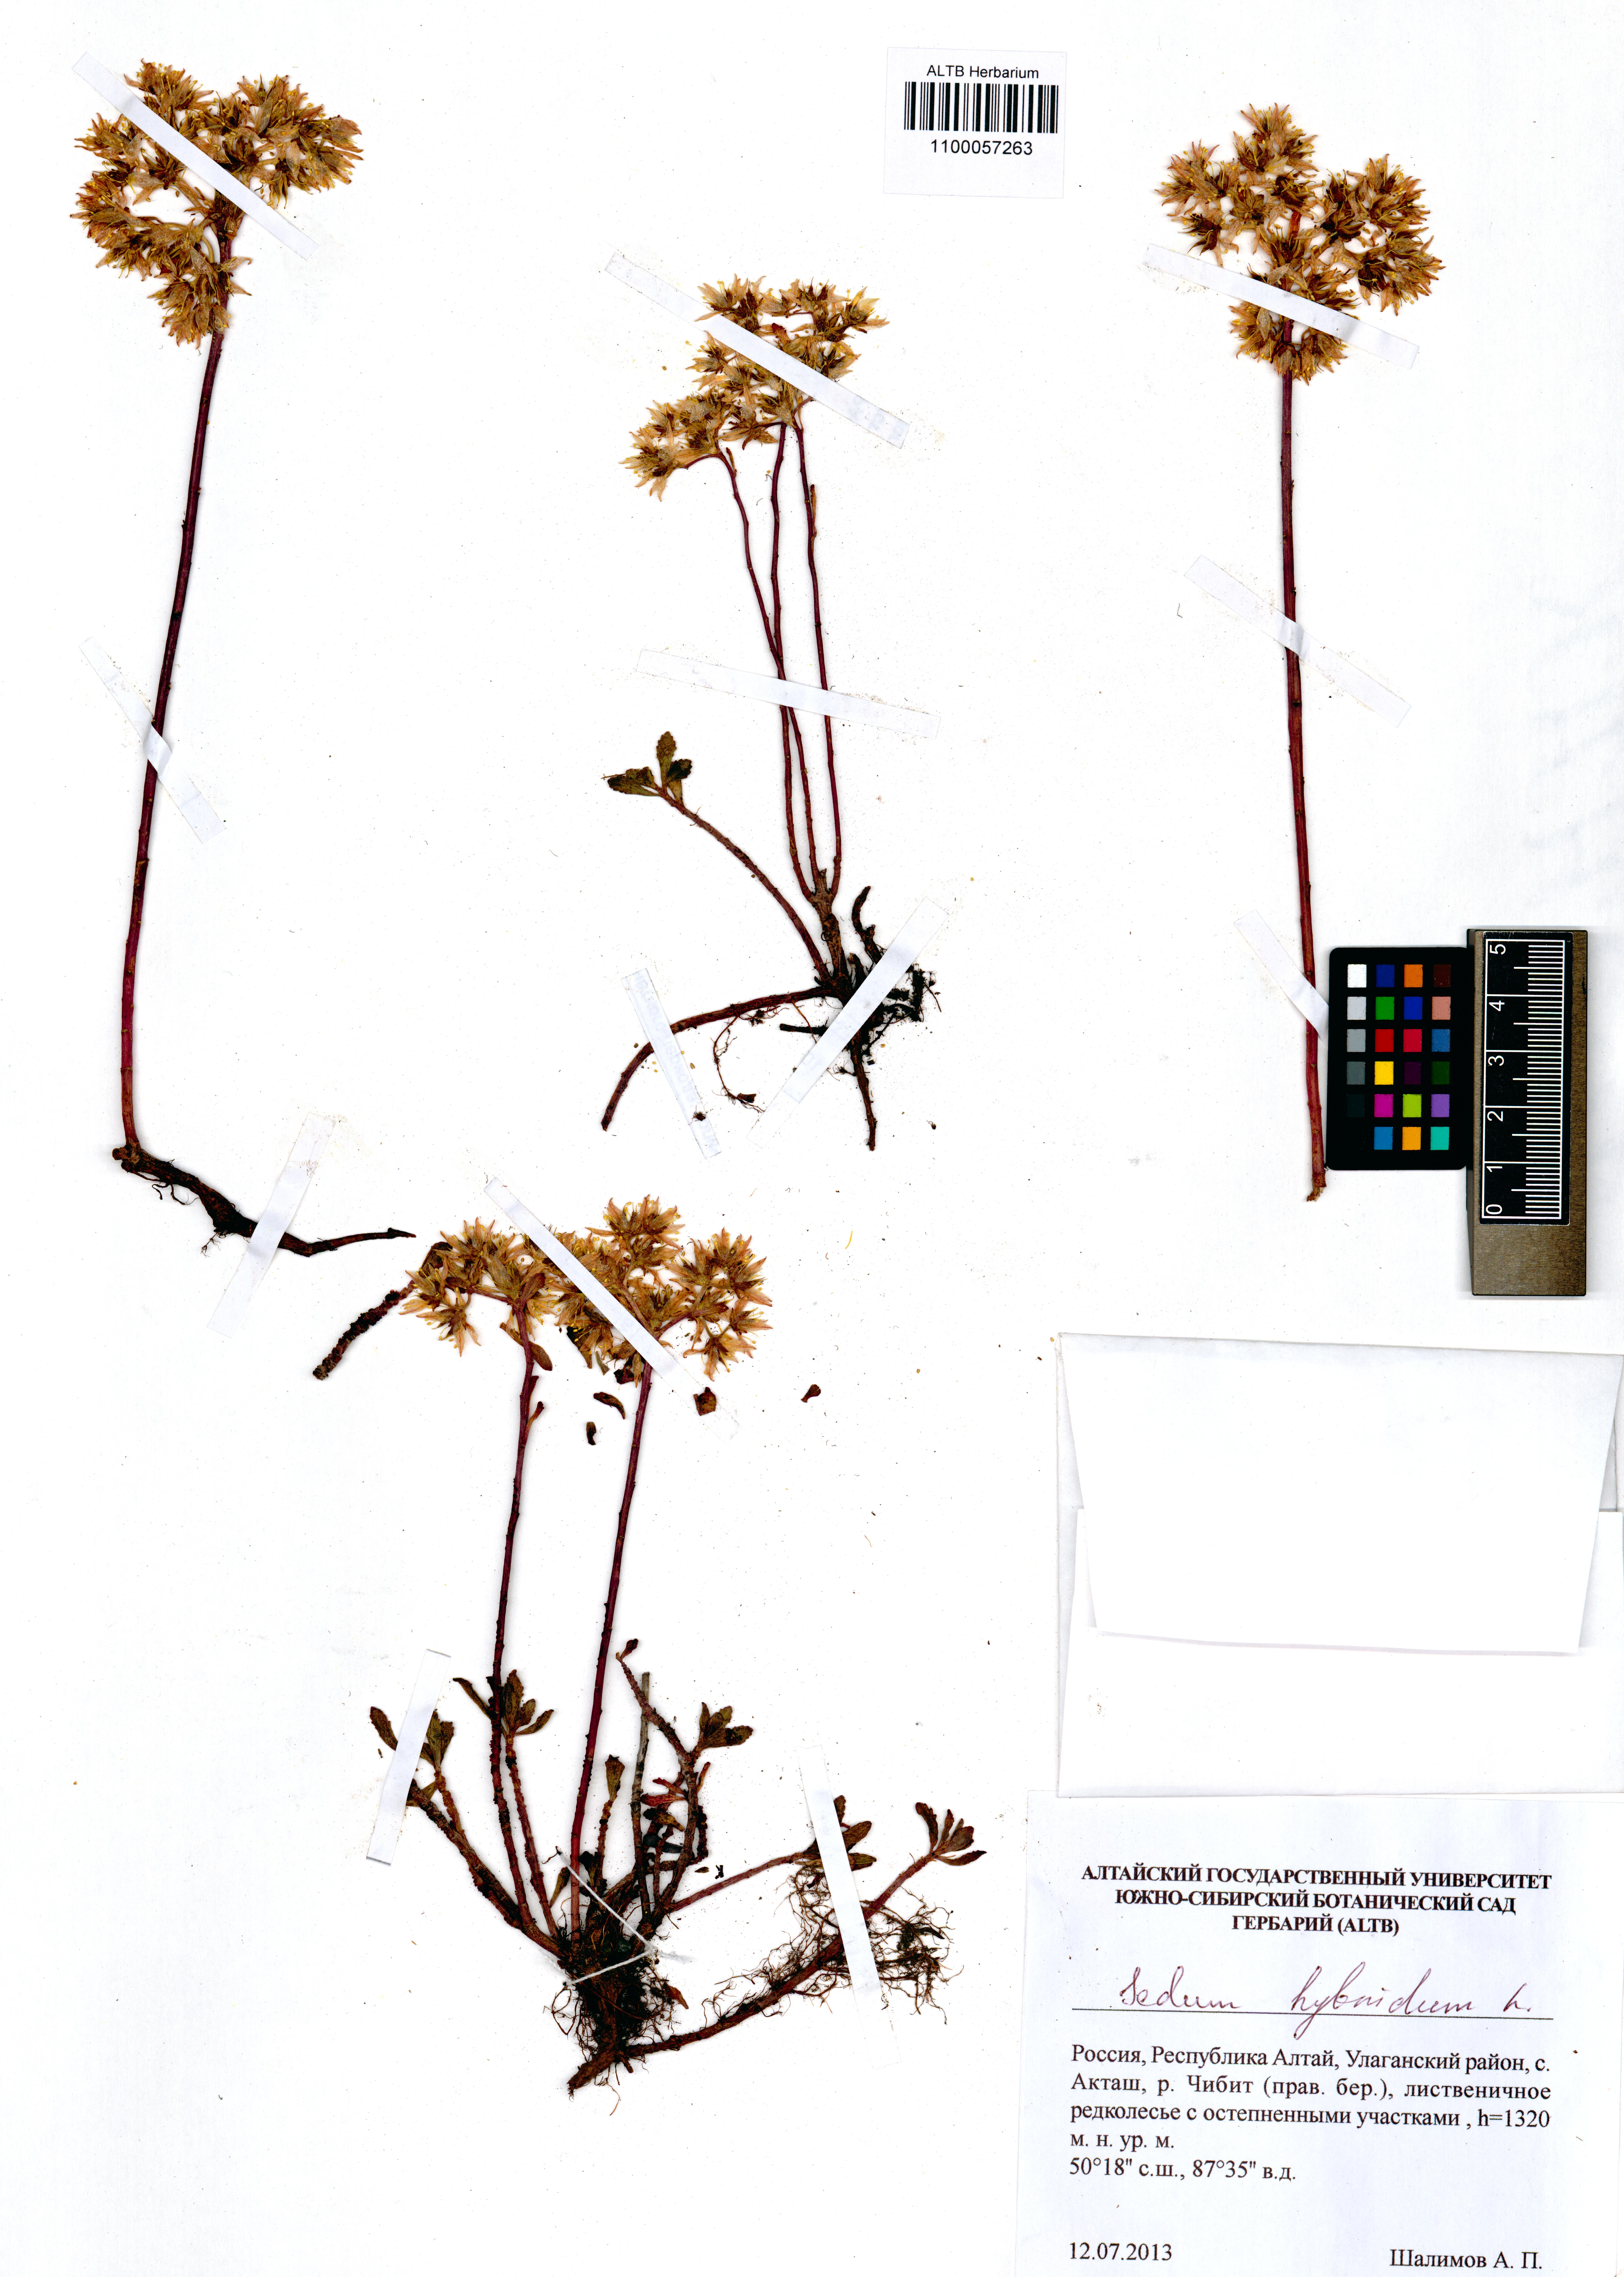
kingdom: Plantae
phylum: Tracheophyta
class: Magnoliopsida
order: Saxifragales
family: Crassulaceae
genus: Phedimus
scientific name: Phedimus hybridus
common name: Hybrid stonecrop
